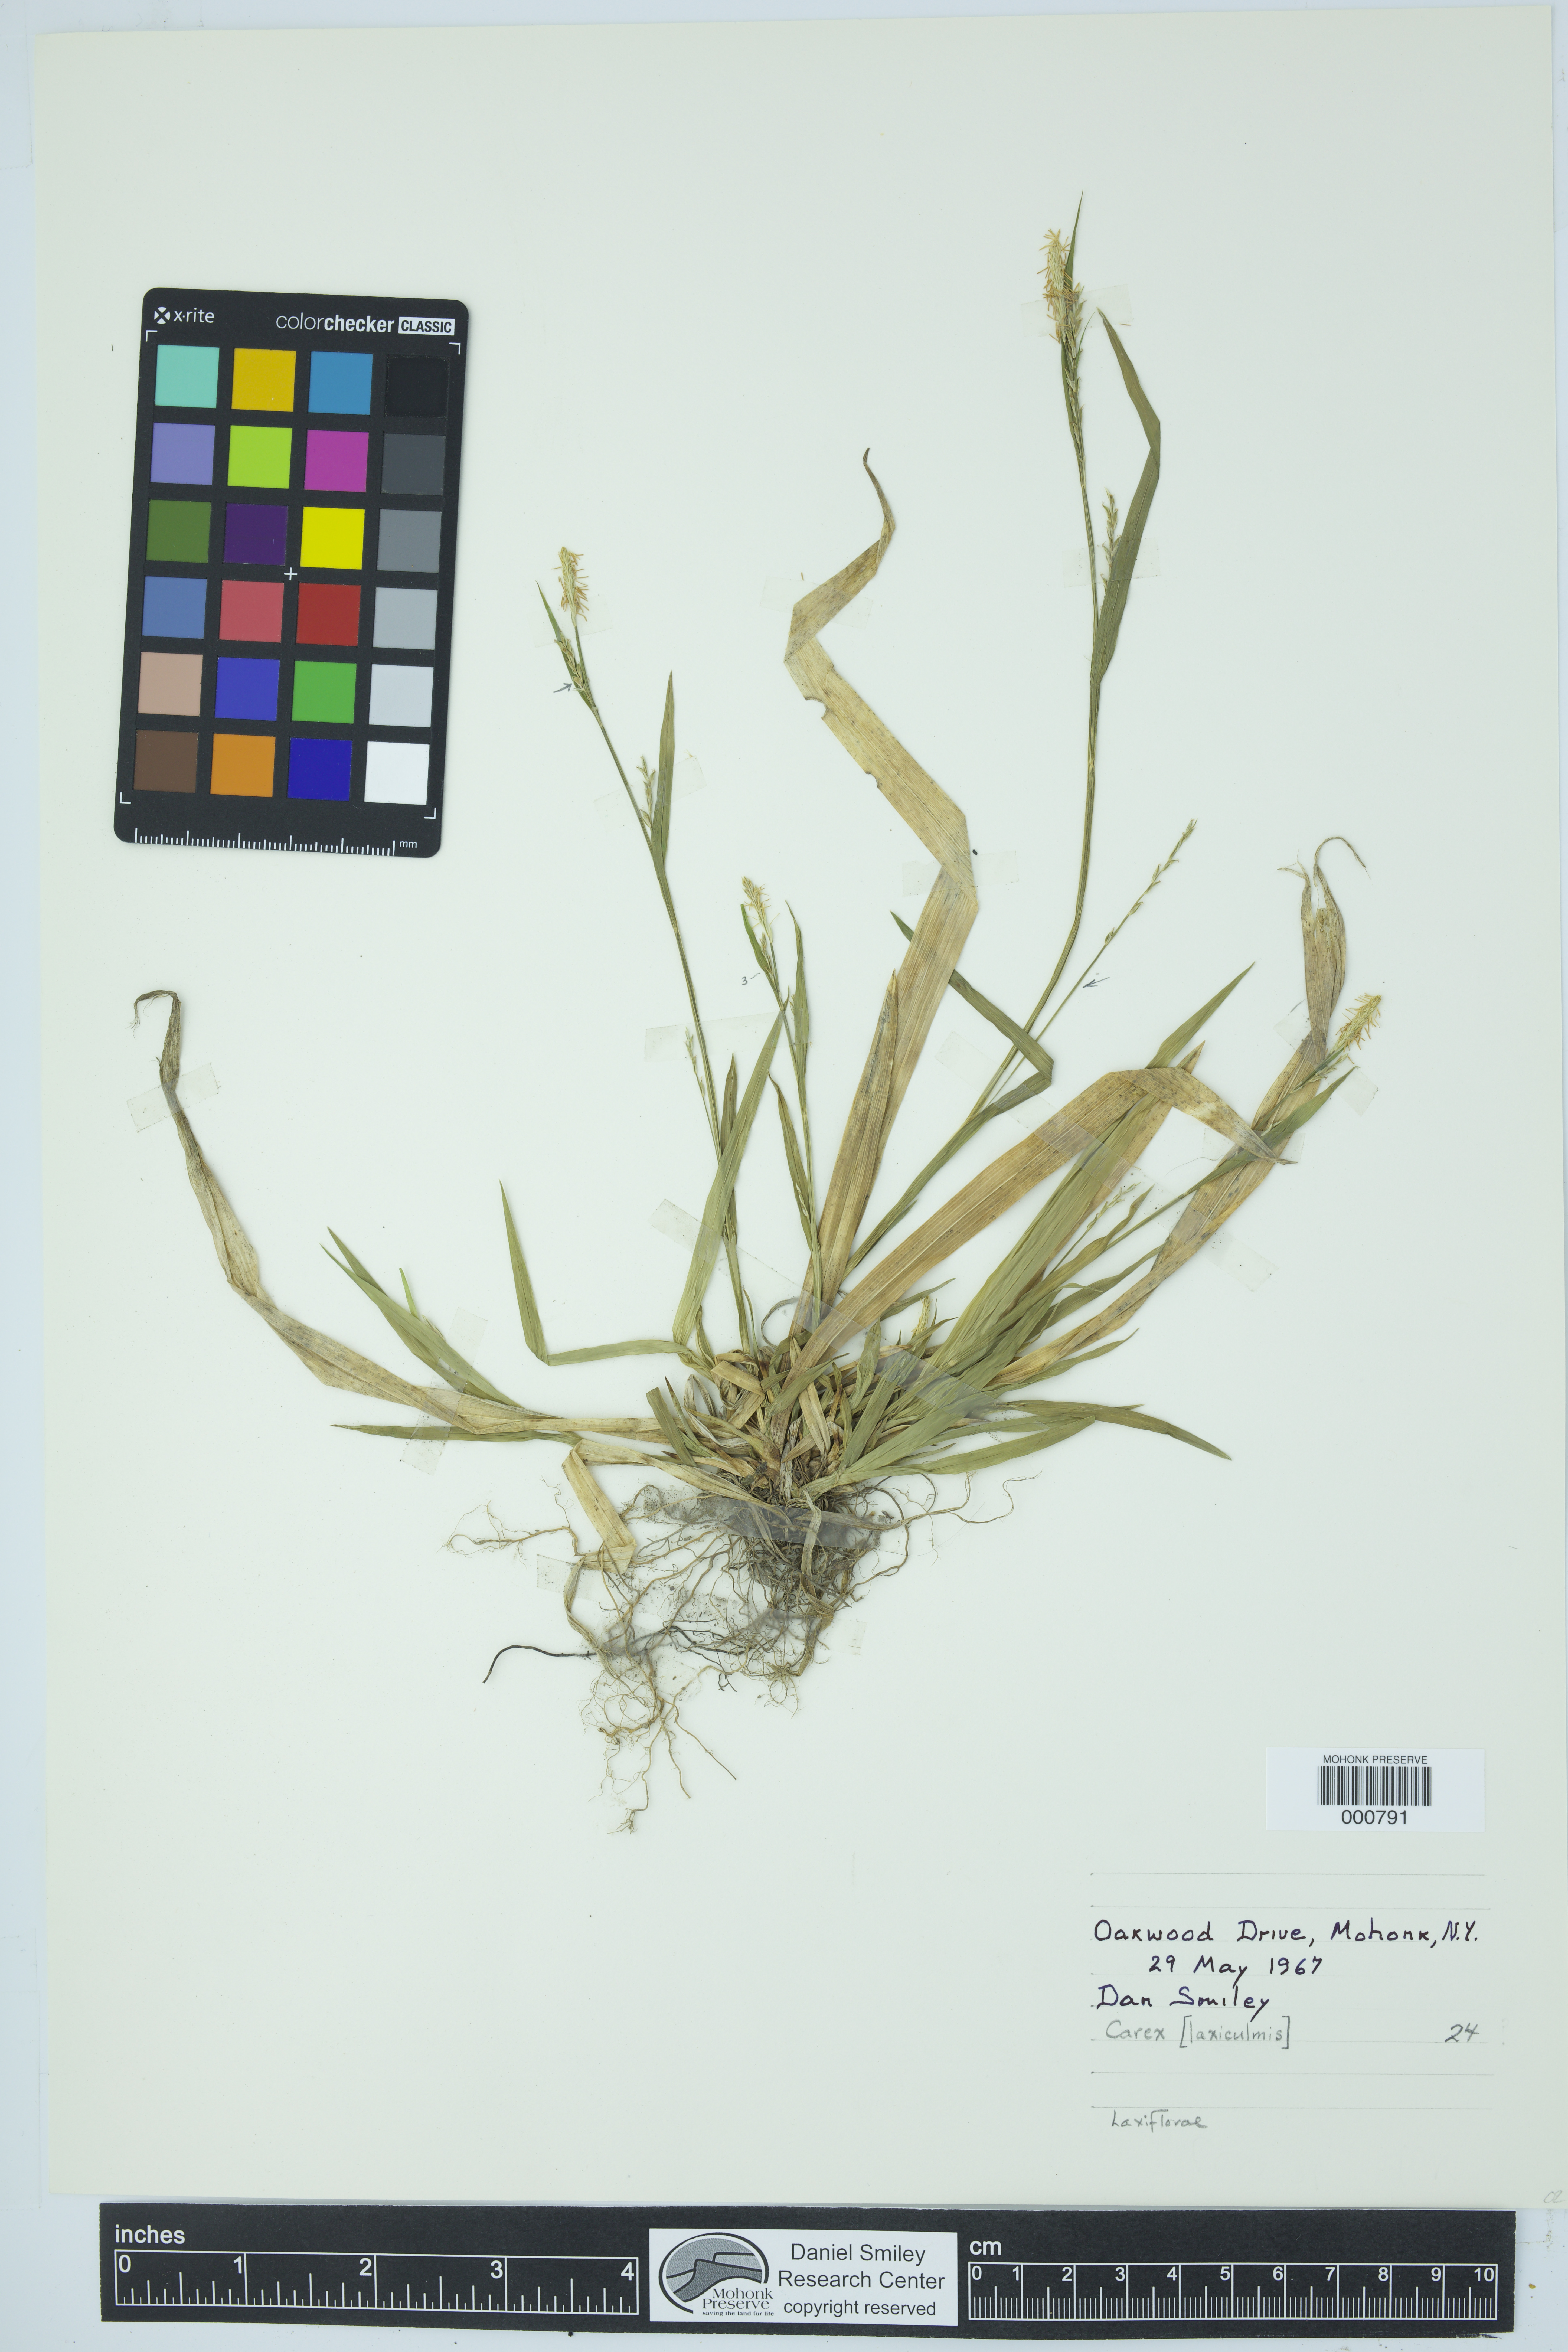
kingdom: Plantae
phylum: Tracheophyta
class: Liliopsida
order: Poales
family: Cyperaceae
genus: Carex
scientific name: Carex laxiculmis
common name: Spreading sedge
